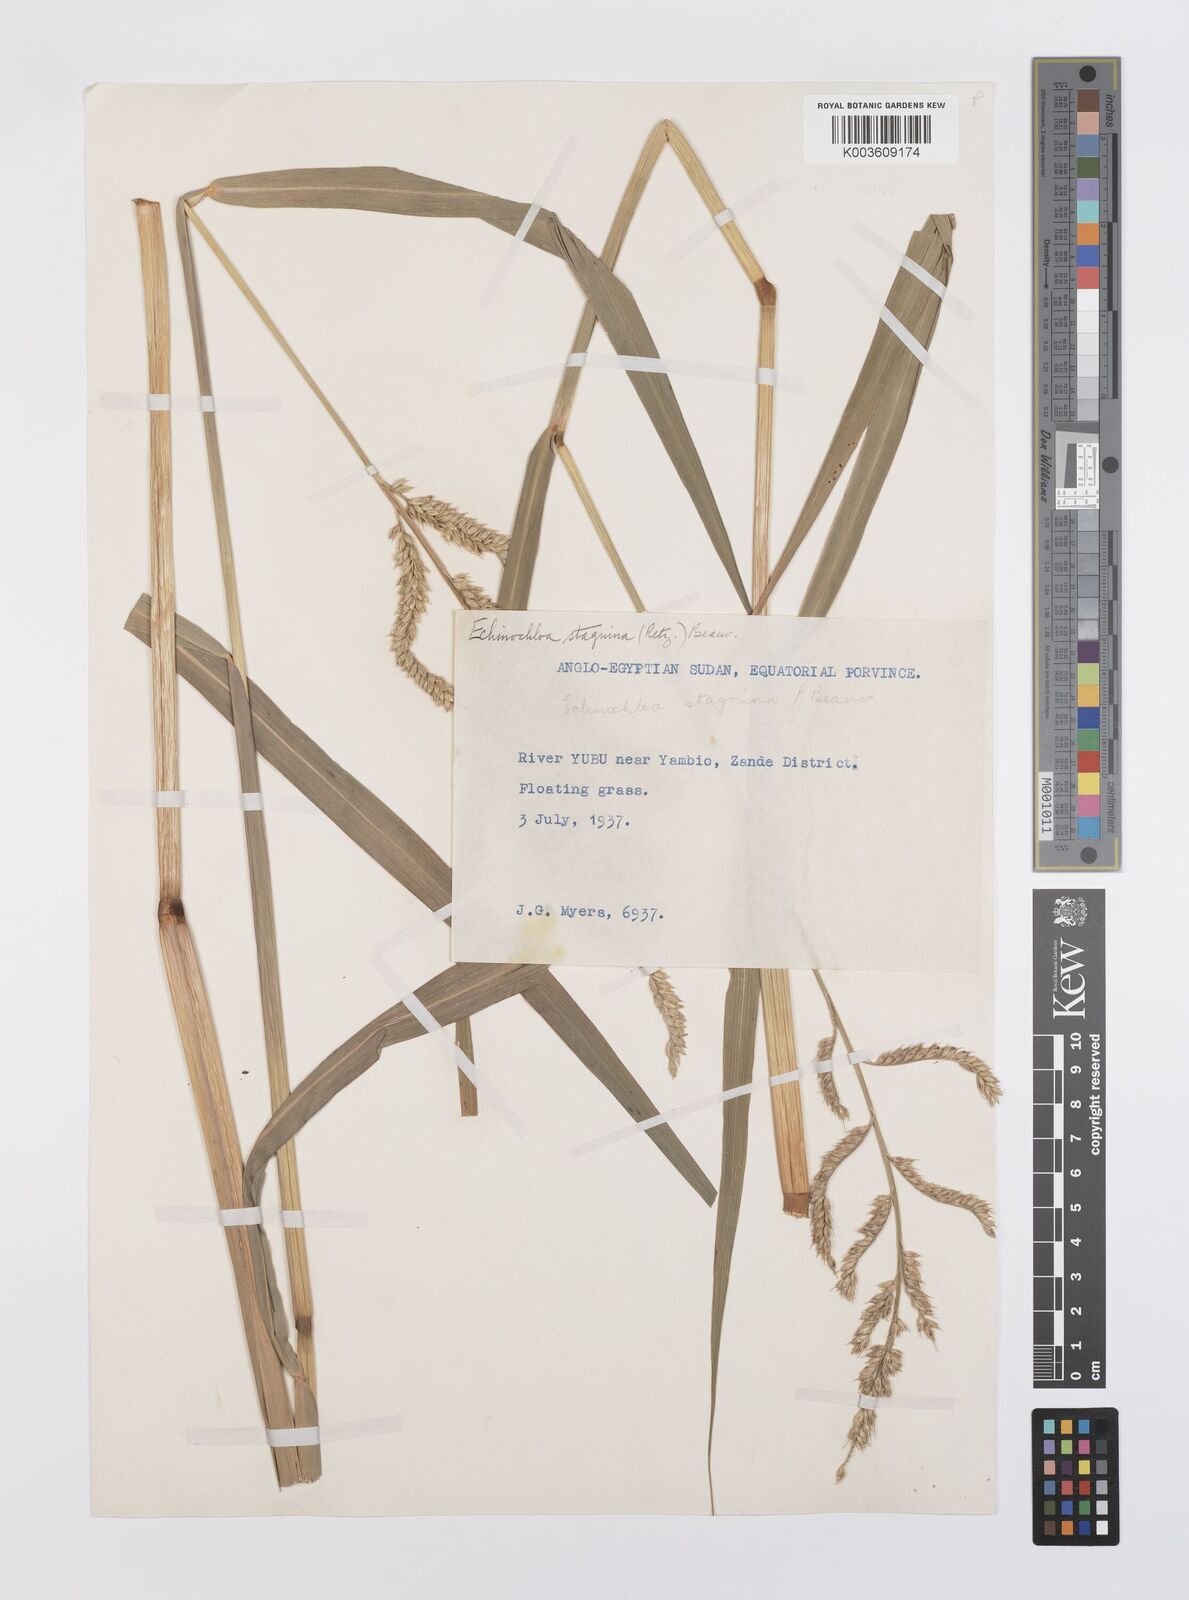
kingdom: Plantae
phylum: Tracheophyta
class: Liliopsida
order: Poales
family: Poaceae
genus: Echinochloa
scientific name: Echinochloa stagnina
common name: Burgu grass
